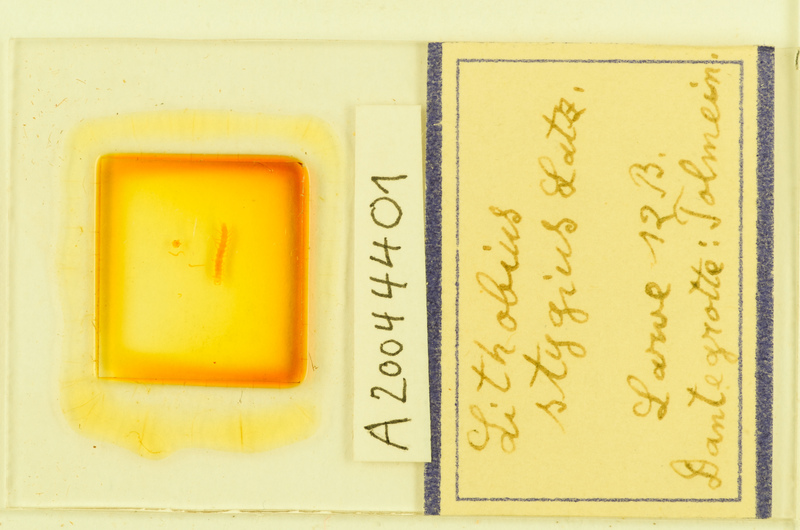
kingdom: Animalia
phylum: Arthropoda
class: Chilopoda
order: Lithobiomorpha
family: Lithobiidae
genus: Lithobius
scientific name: Lithobius stygius
